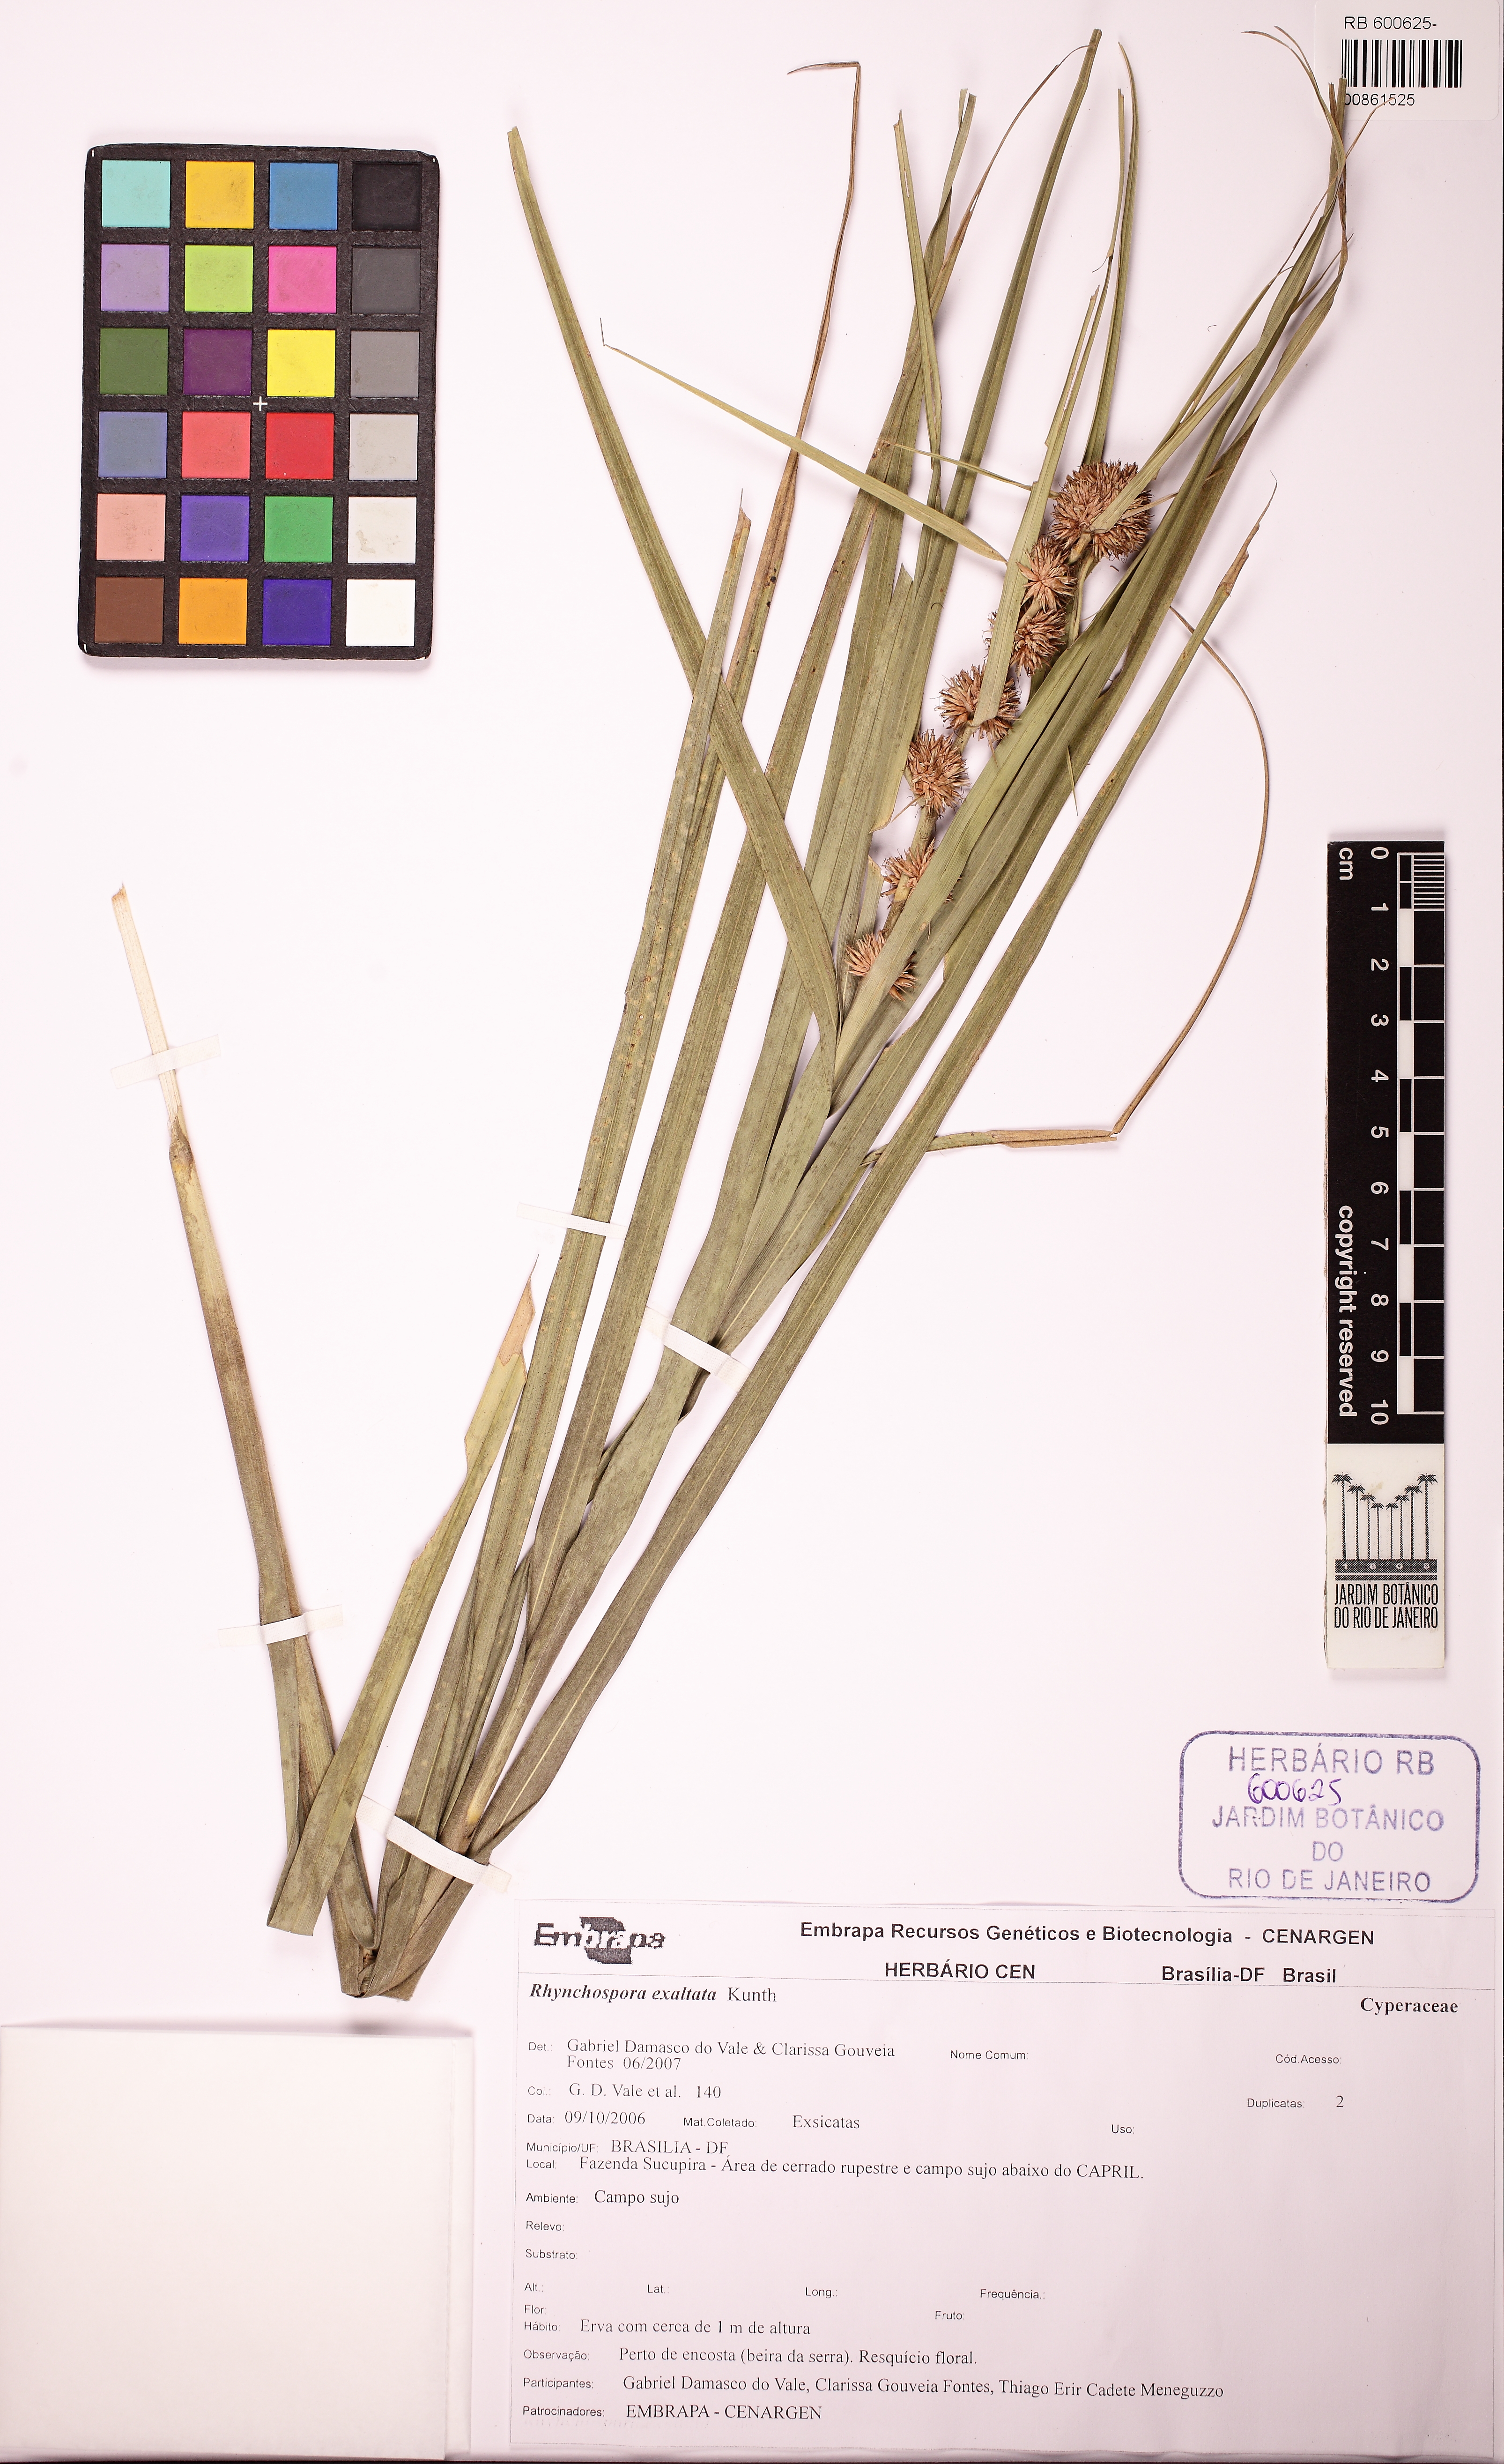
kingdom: Plantae
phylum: Tracheophyta
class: Liliopsida
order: Poales
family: Cyperaceae
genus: Rhynchospora
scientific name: Rhynchospora exaltata
